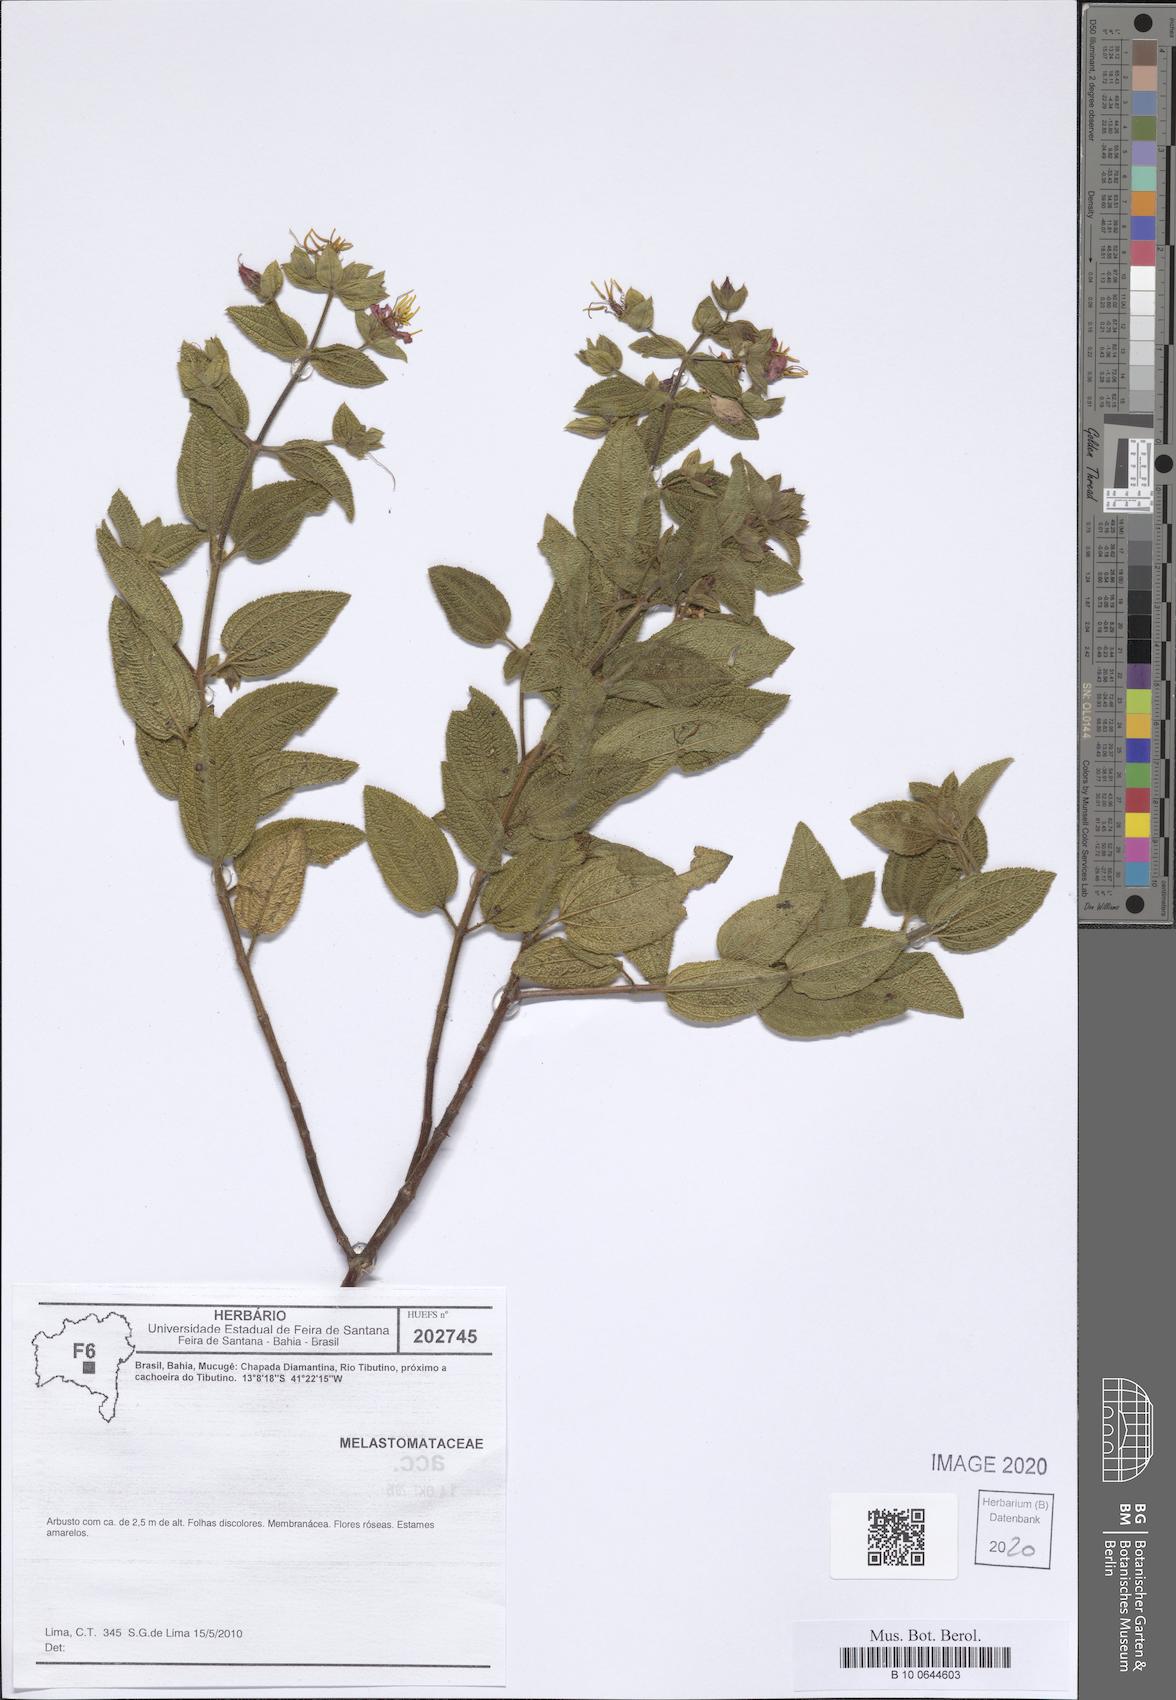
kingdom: Plantae
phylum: Tracheophyta
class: Magnoliopsida
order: Myrtales
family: Melastomataceae
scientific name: Melastomataceae
